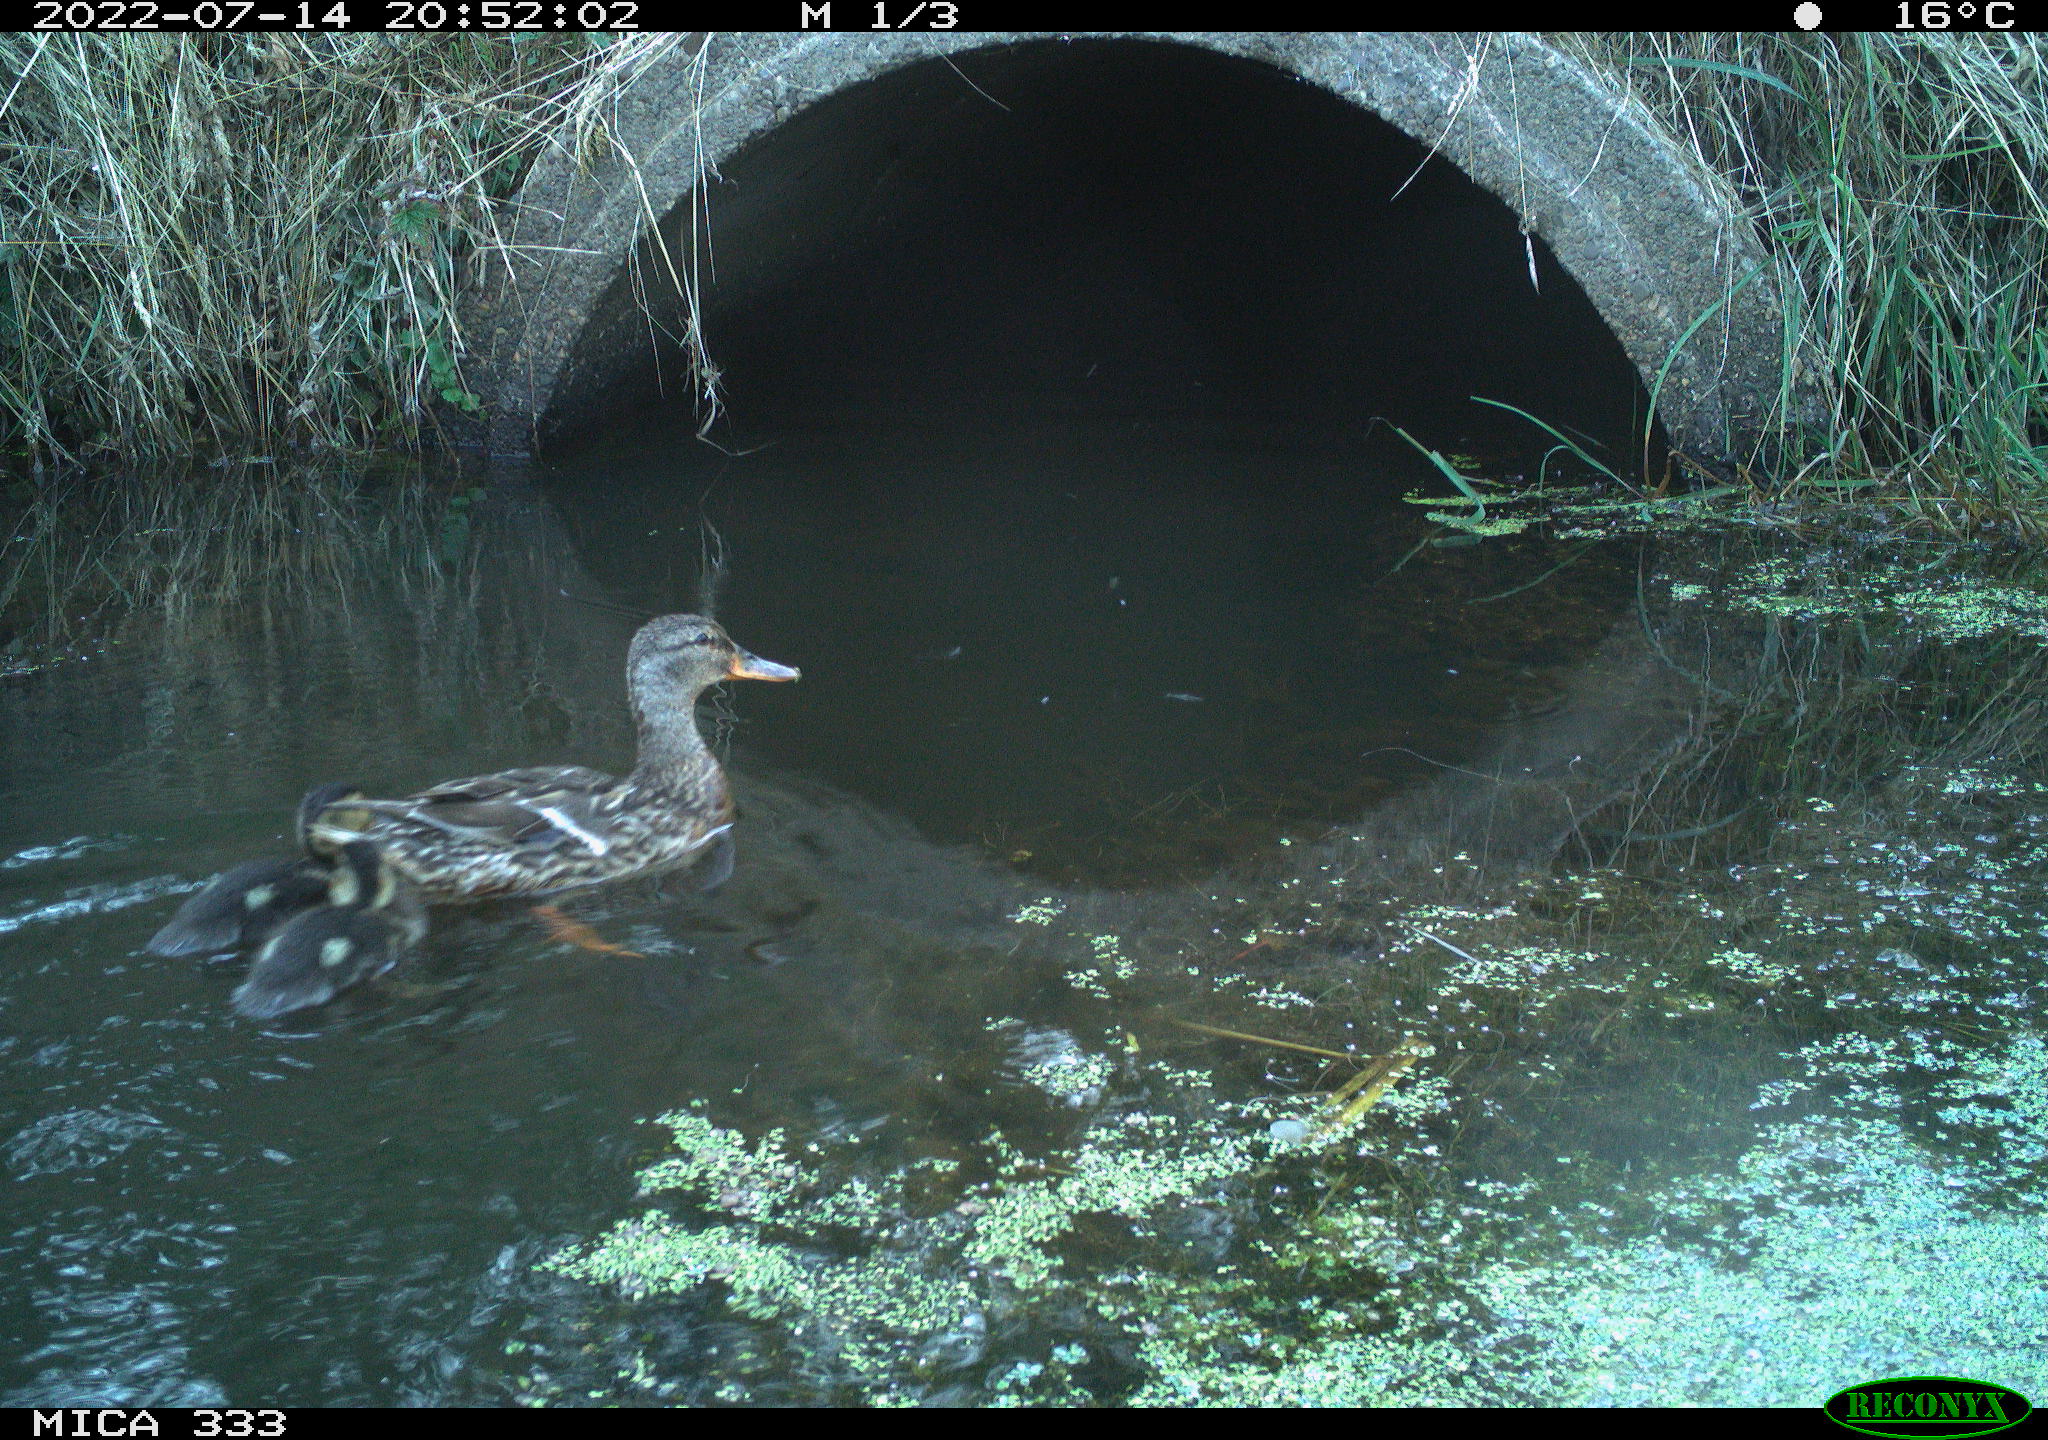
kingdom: Animalia
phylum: Chordata
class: Aves
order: Anseriformes
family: Anatidae
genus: Anas
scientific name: Anas platyrhynchos
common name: Mallard
